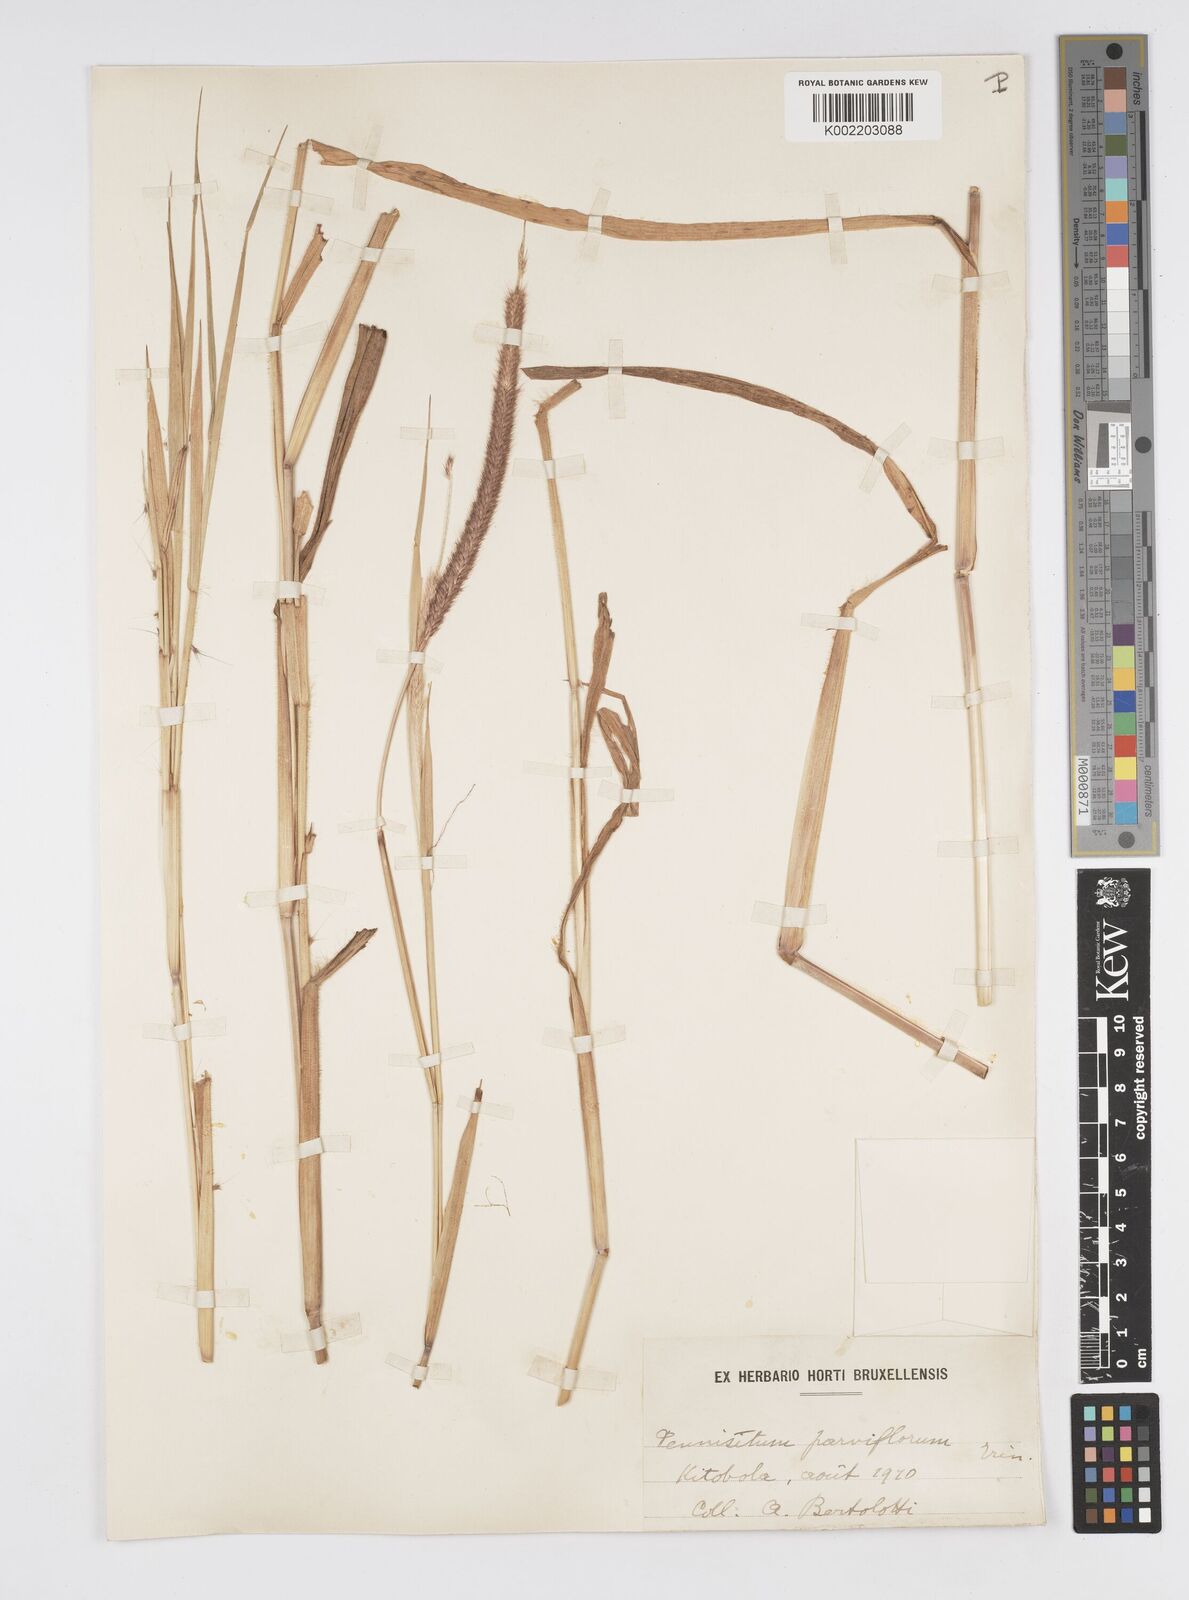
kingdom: Plantae
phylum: Tracheophyta
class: Liliopsida
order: Poales
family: Poaceae
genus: Setaria
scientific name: Setaria parviflora
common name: Knotroot bristle-grass
